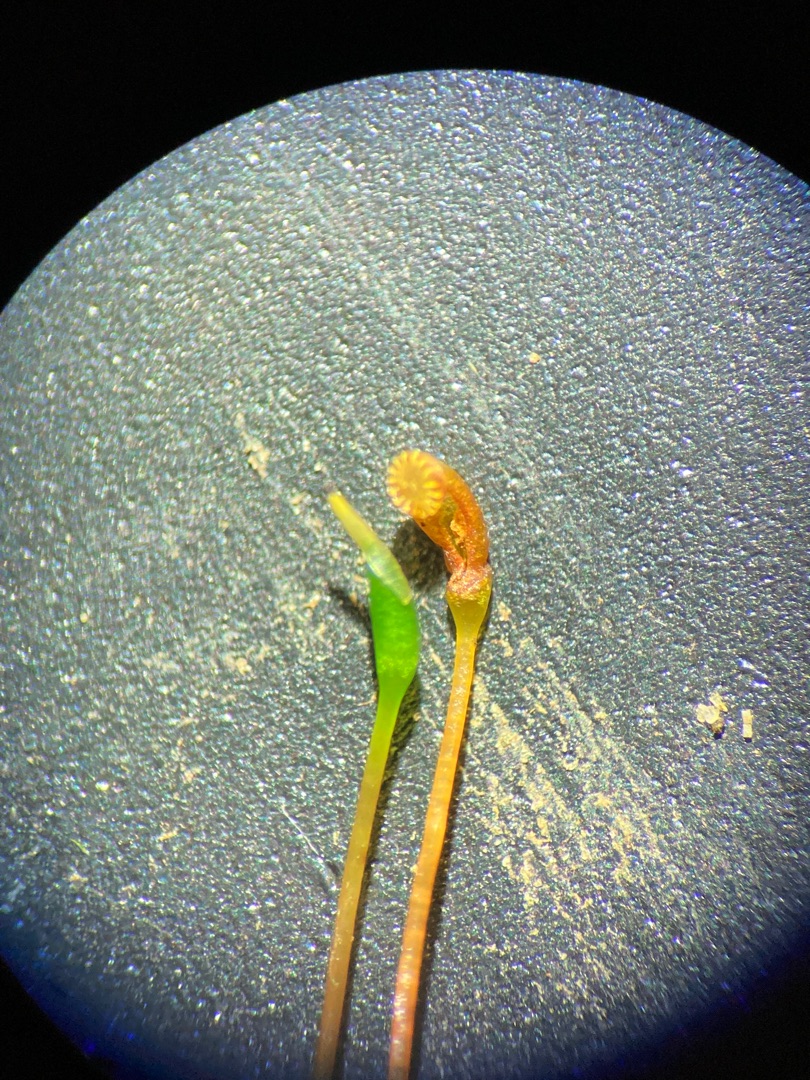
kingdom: Plantae
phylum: Bryophyta
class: Bryopsida
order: Hypnales
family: Amblystegiaceae
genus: Leptodictyum
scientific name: Leptodictyum riparium
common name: Stor pytmos
